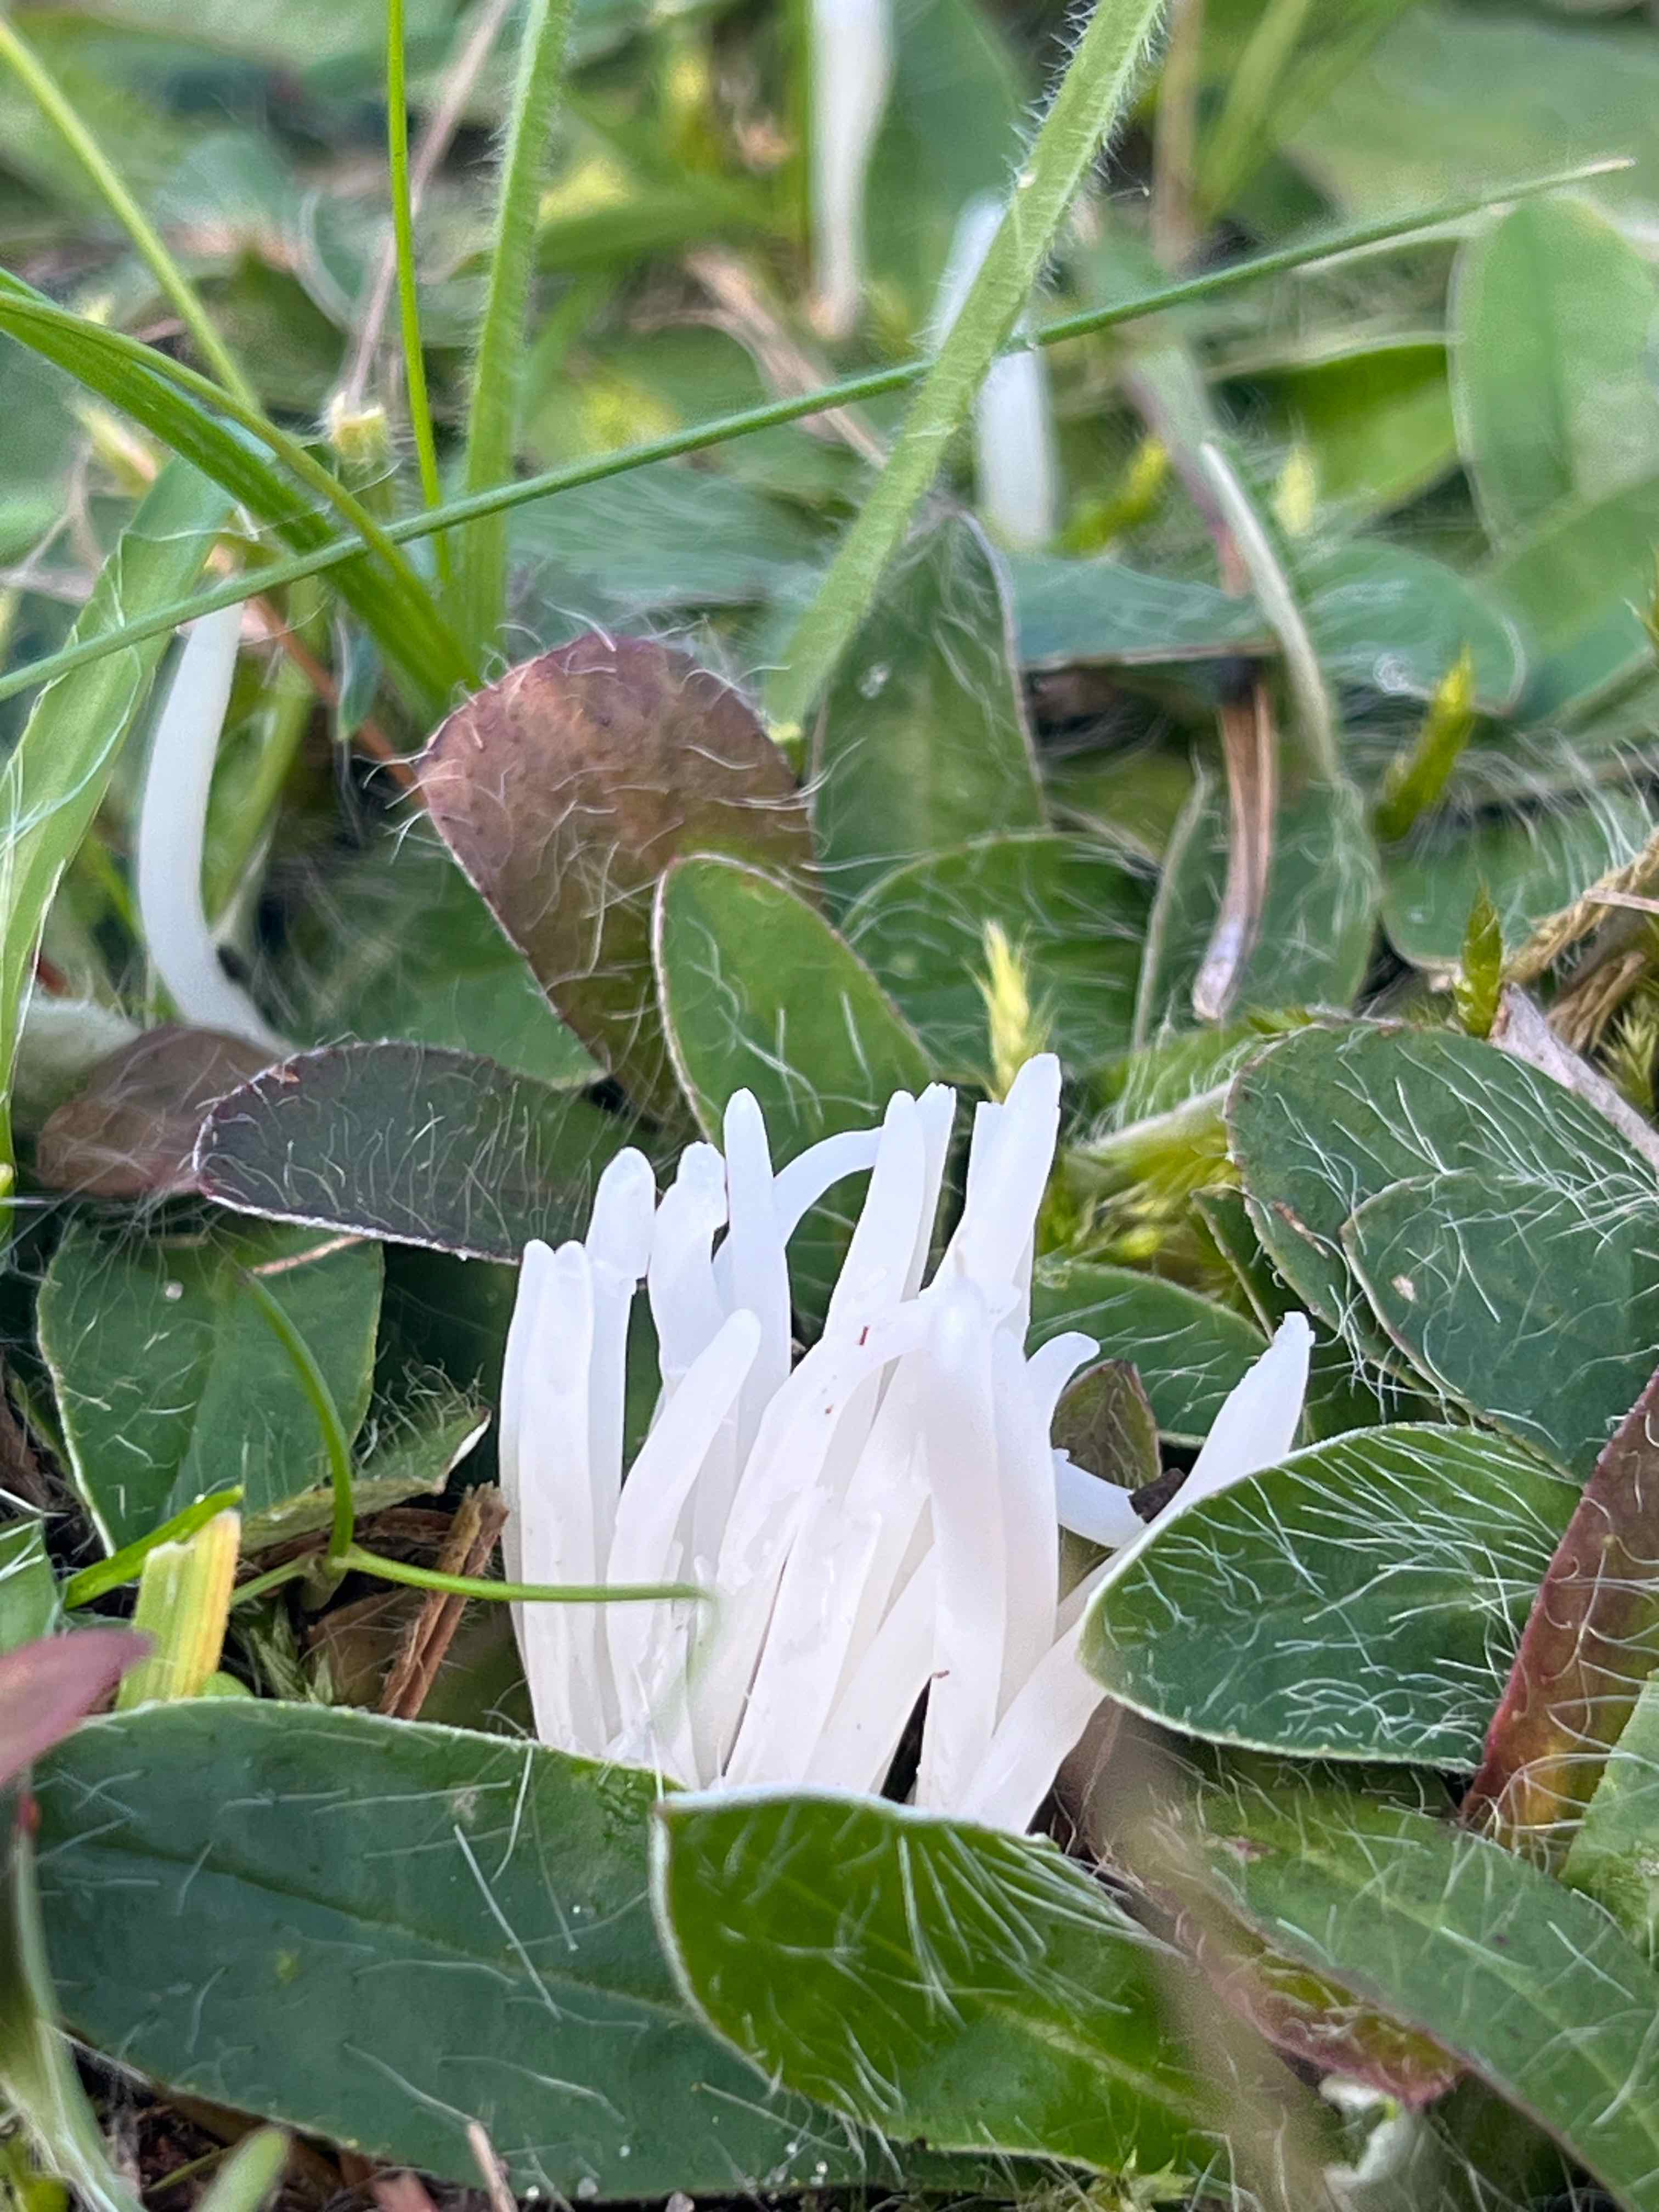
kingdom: Fungi
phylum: Basidiomycota
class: Agaricomycetes
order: Agaricales
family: Clavariaceae
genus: Clavaria
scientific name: Clavaria fragilis
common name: bugtet køllesvamp
